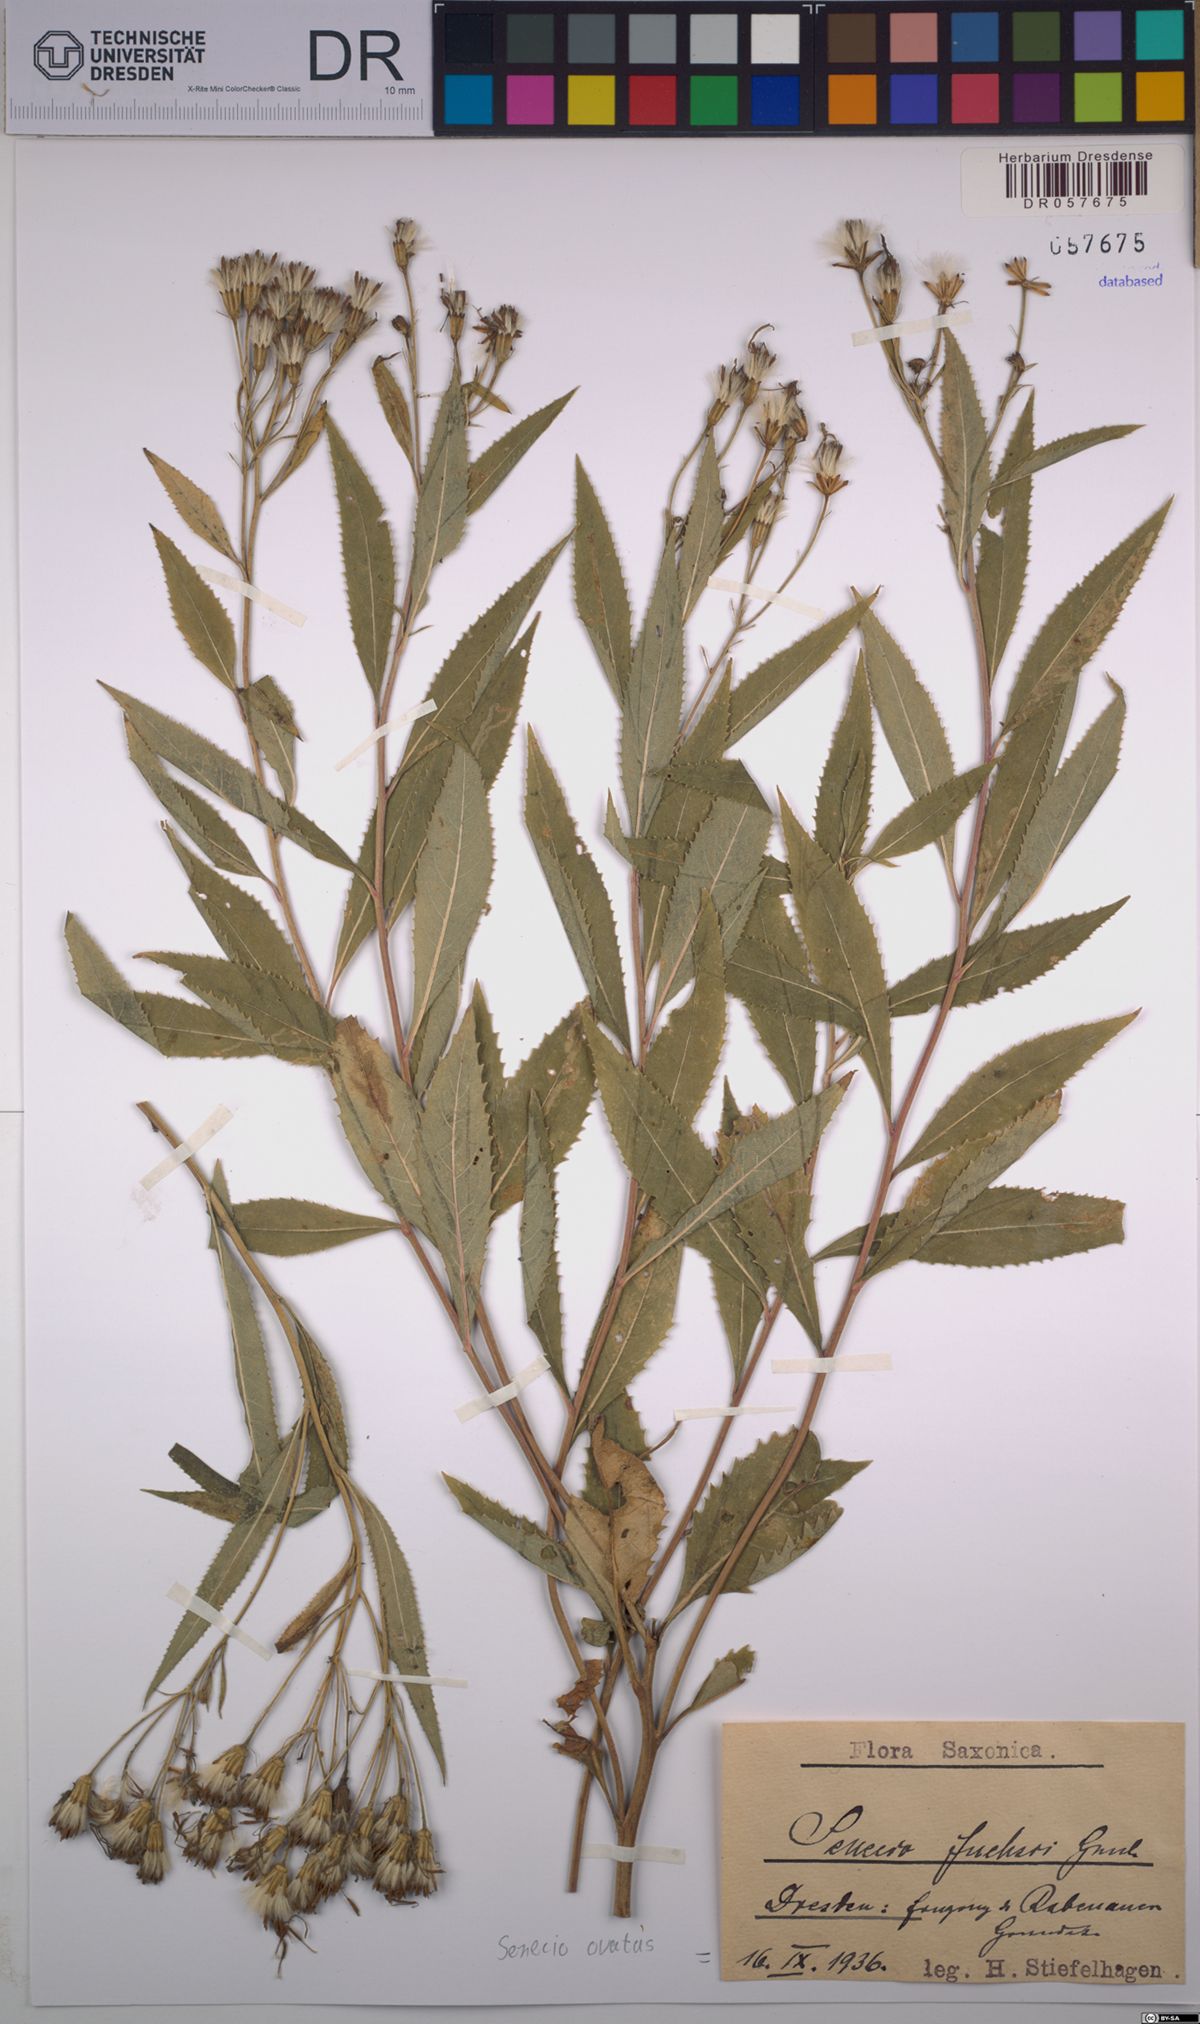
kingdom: Plantae
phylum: Tracheophyta
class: Magnoliopsida
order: Asterales
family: Asteraceae
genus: Senecio
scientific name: Senecio ovatus
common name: Wood ragwort
